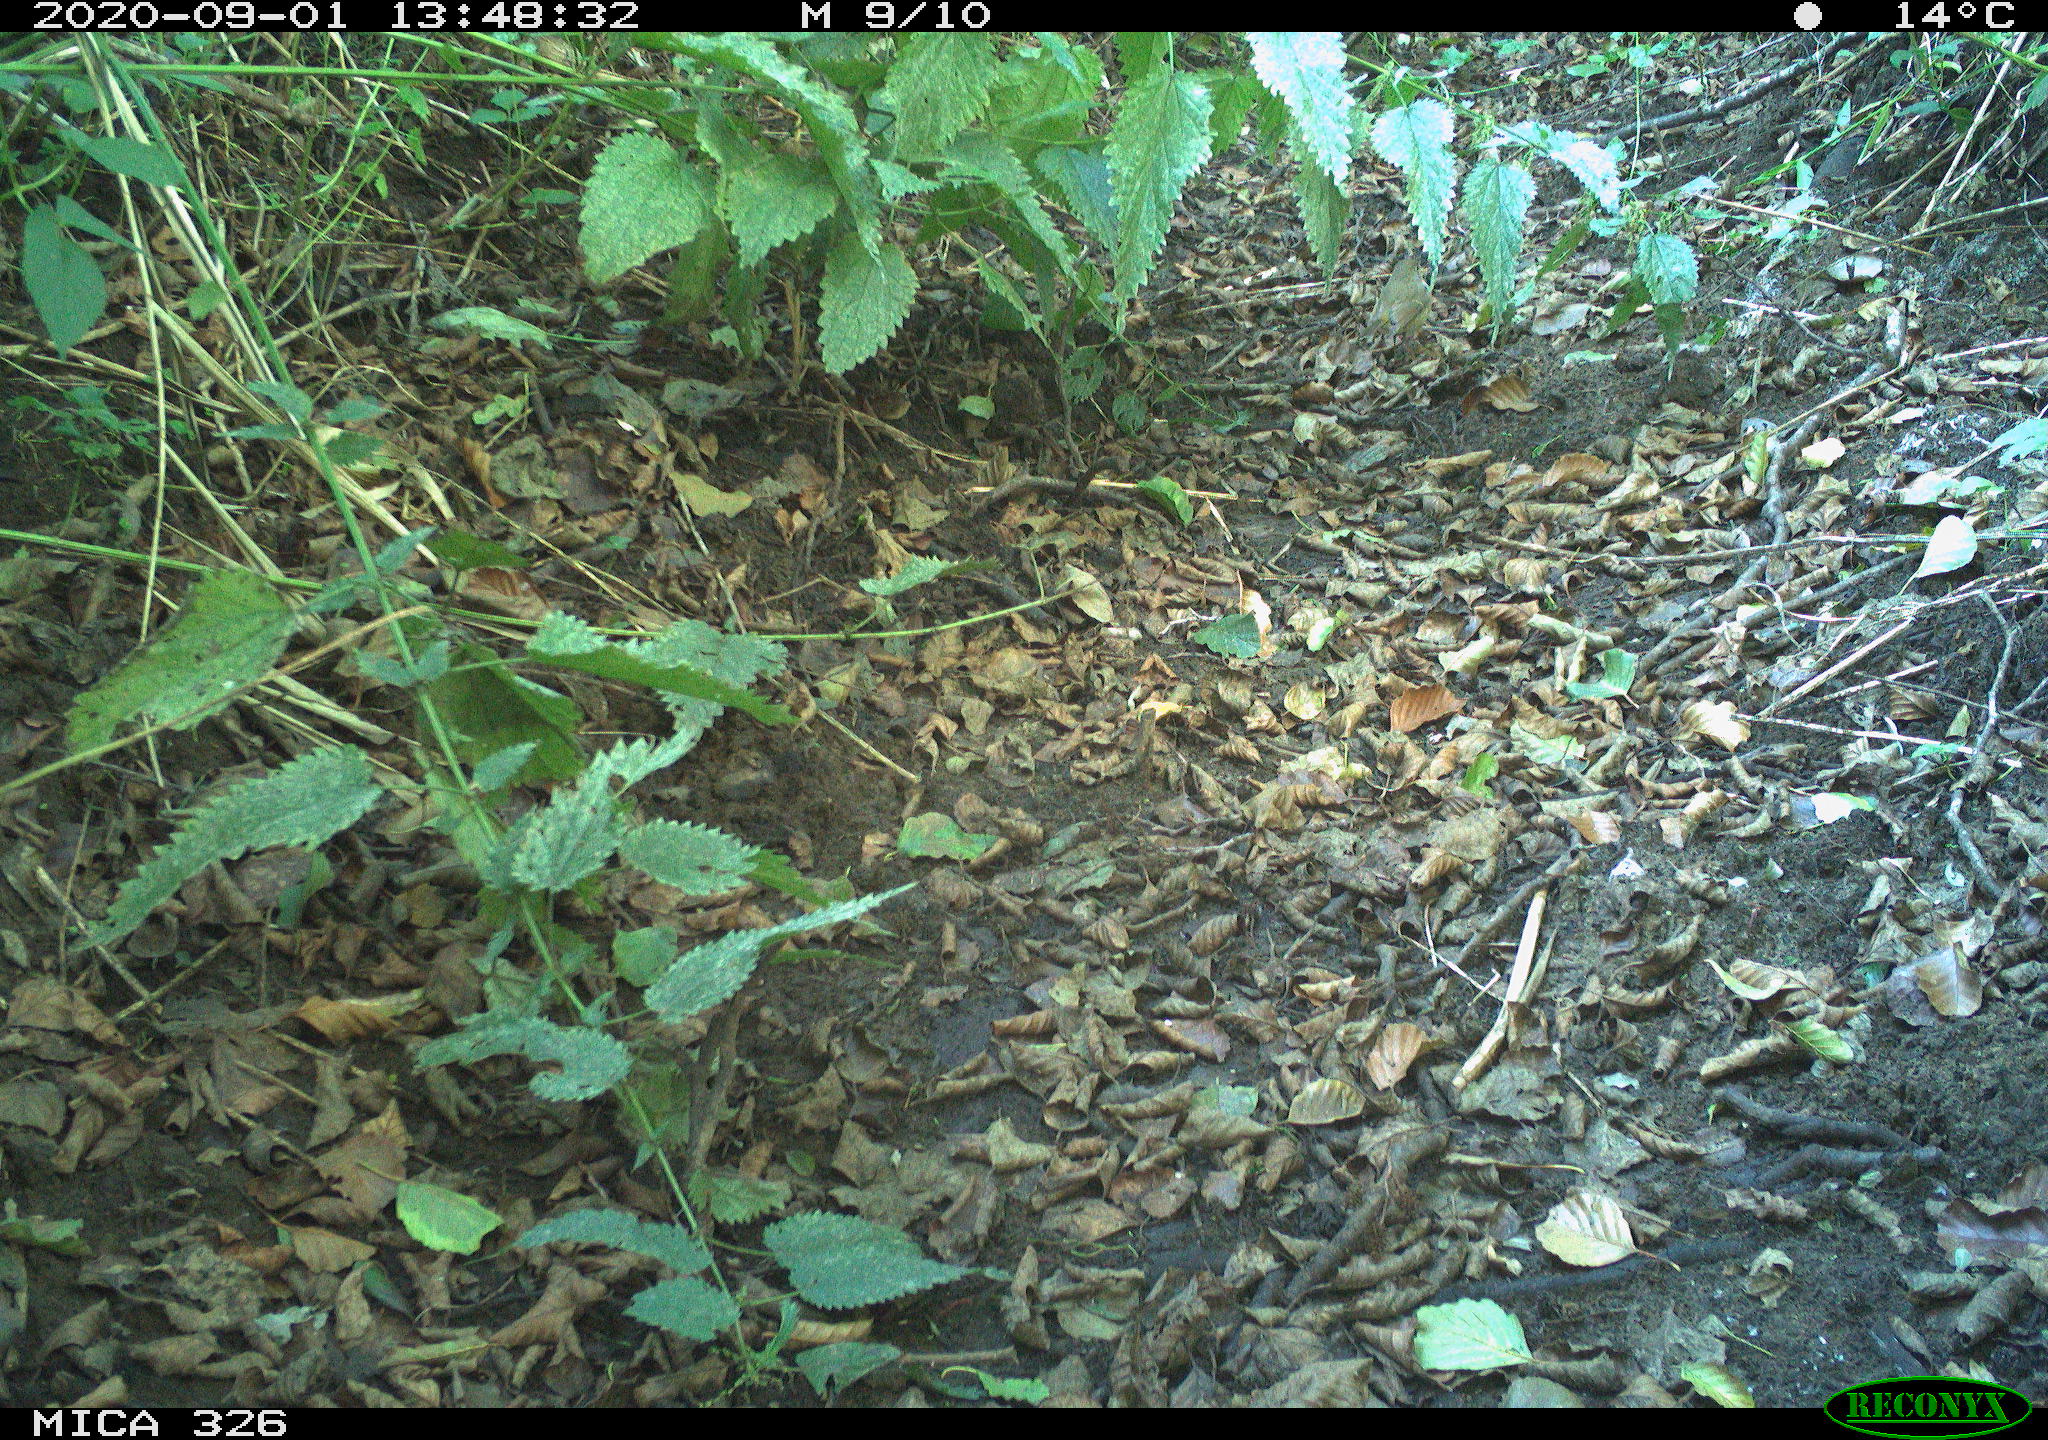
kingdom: Animalia
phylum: Chordata
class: Aves
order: Passeriformes
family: Muscicapidae
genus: Erithacus
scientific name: Erithacus rubecula
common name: European robin
